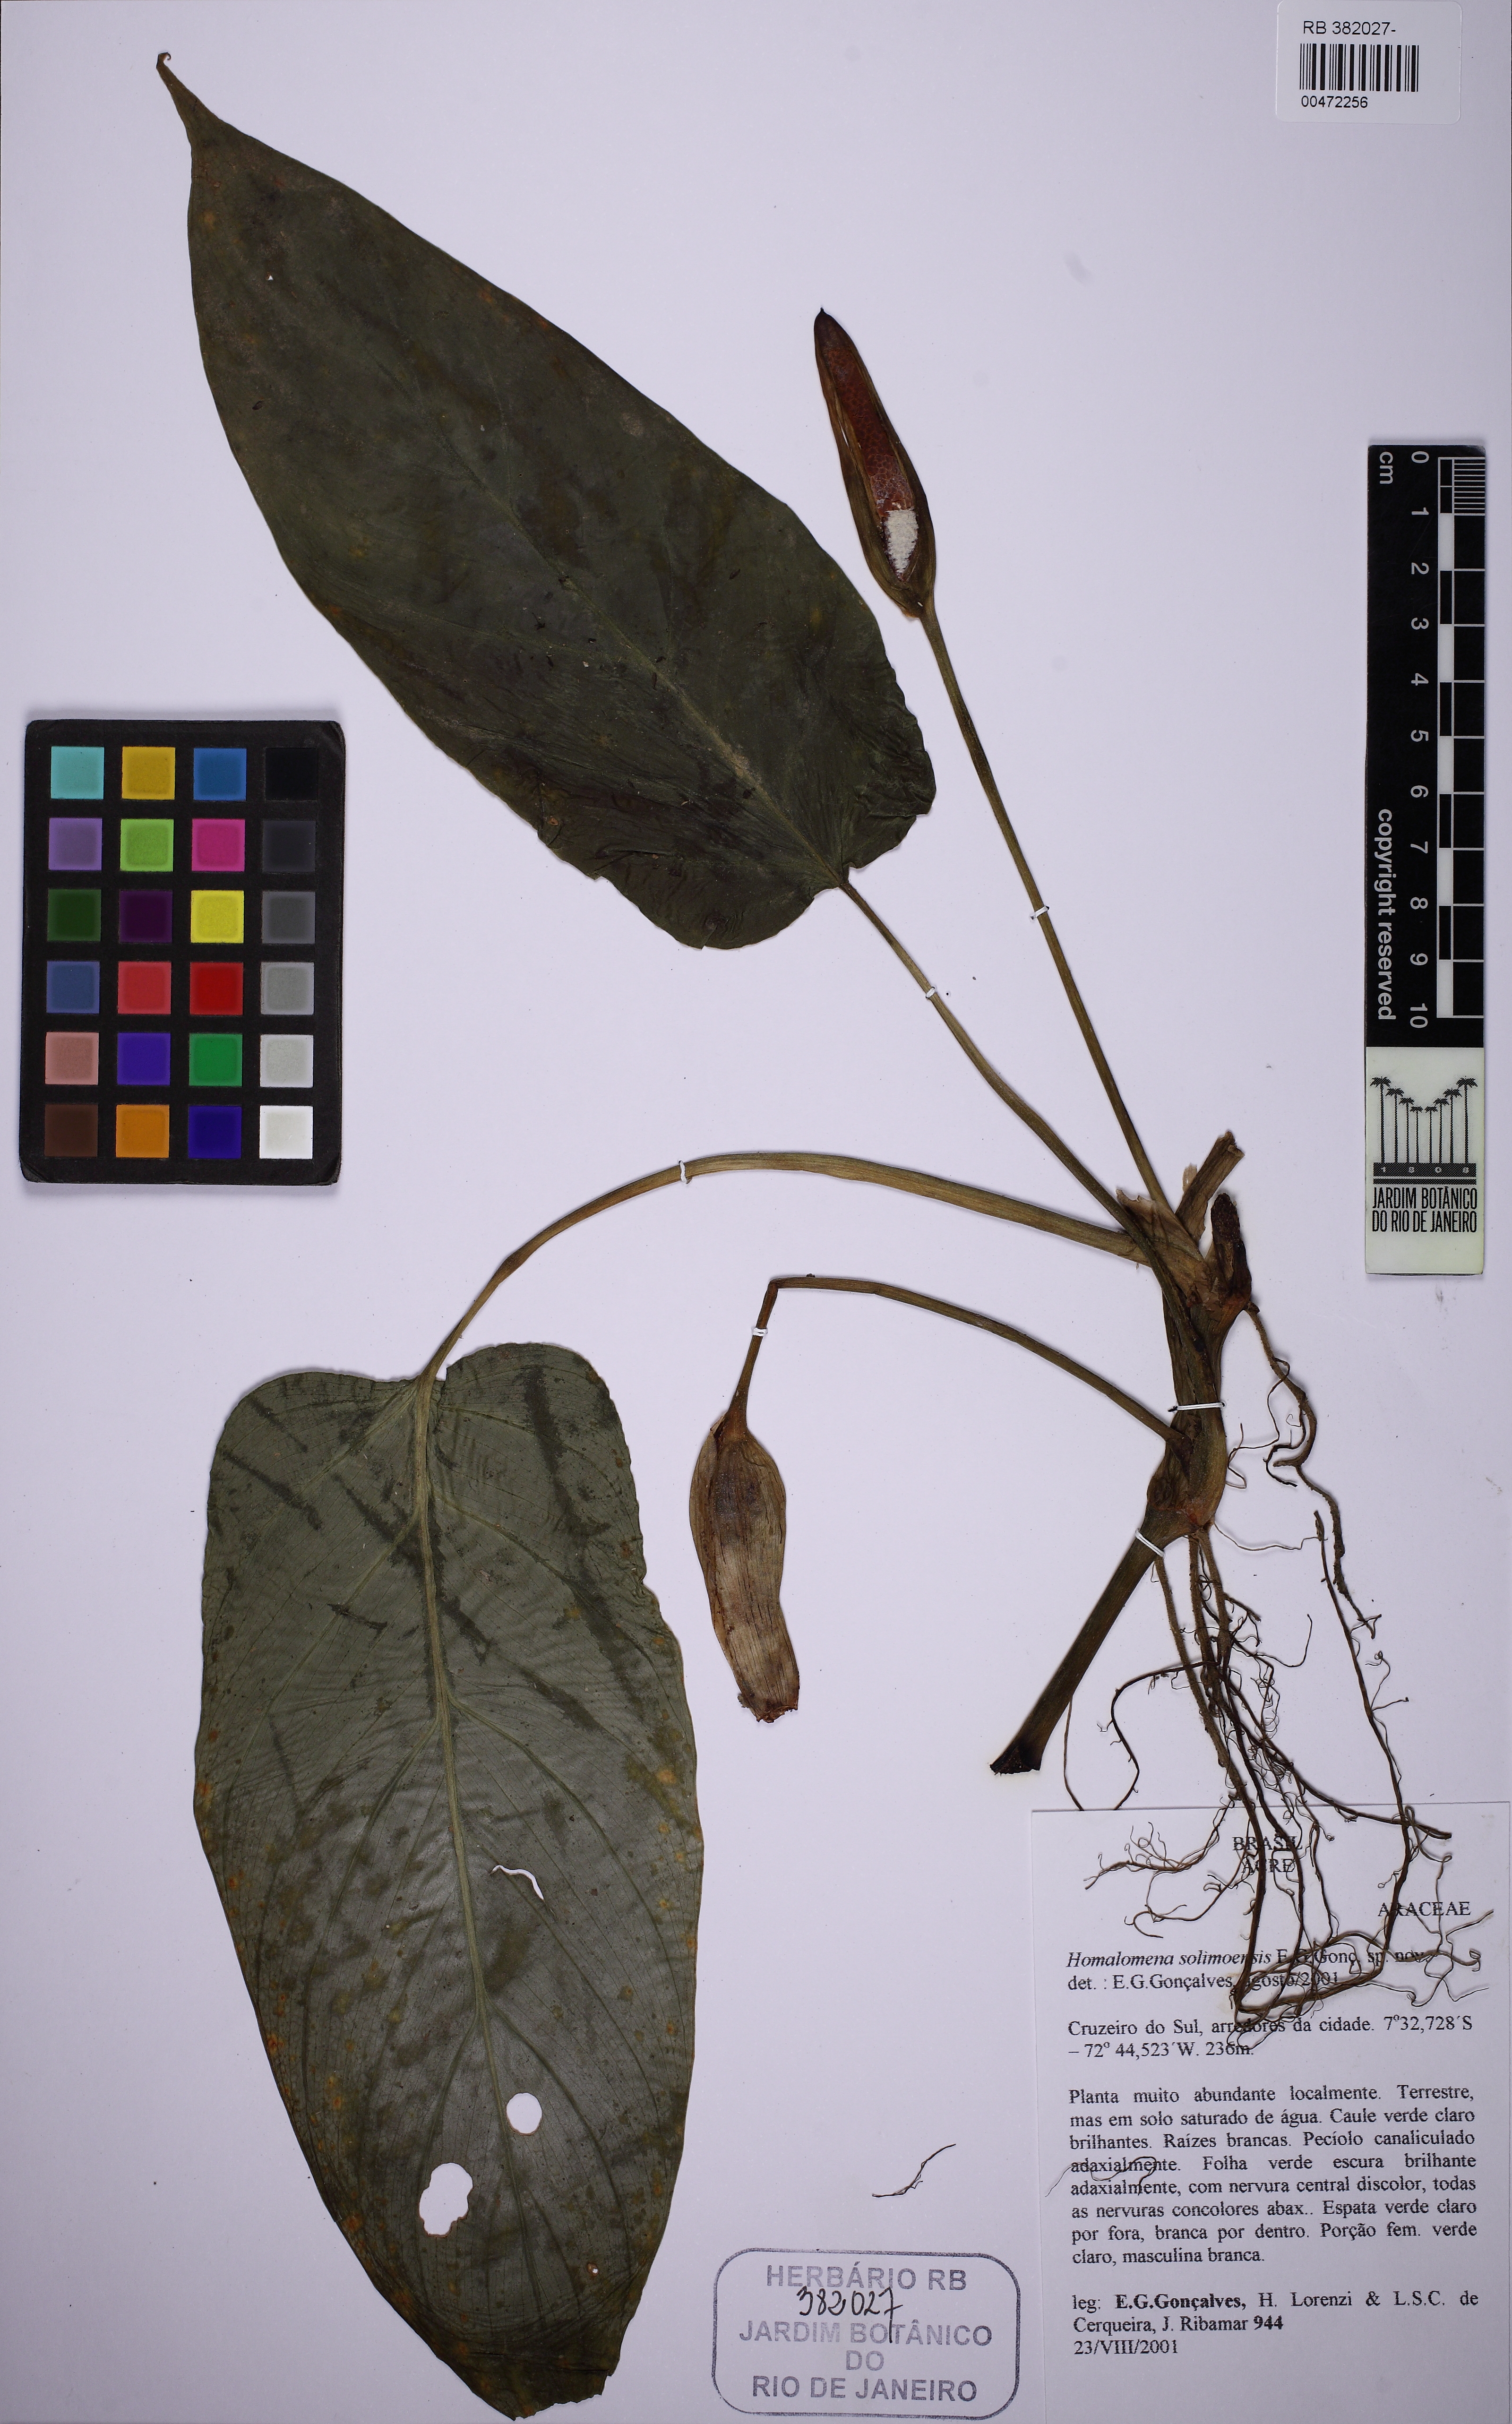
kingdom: Plantae
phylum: Tracheophyta
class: Liliopsida
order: Alismatales
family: Araceae
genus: Philodendron
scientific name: Philodendron humile
